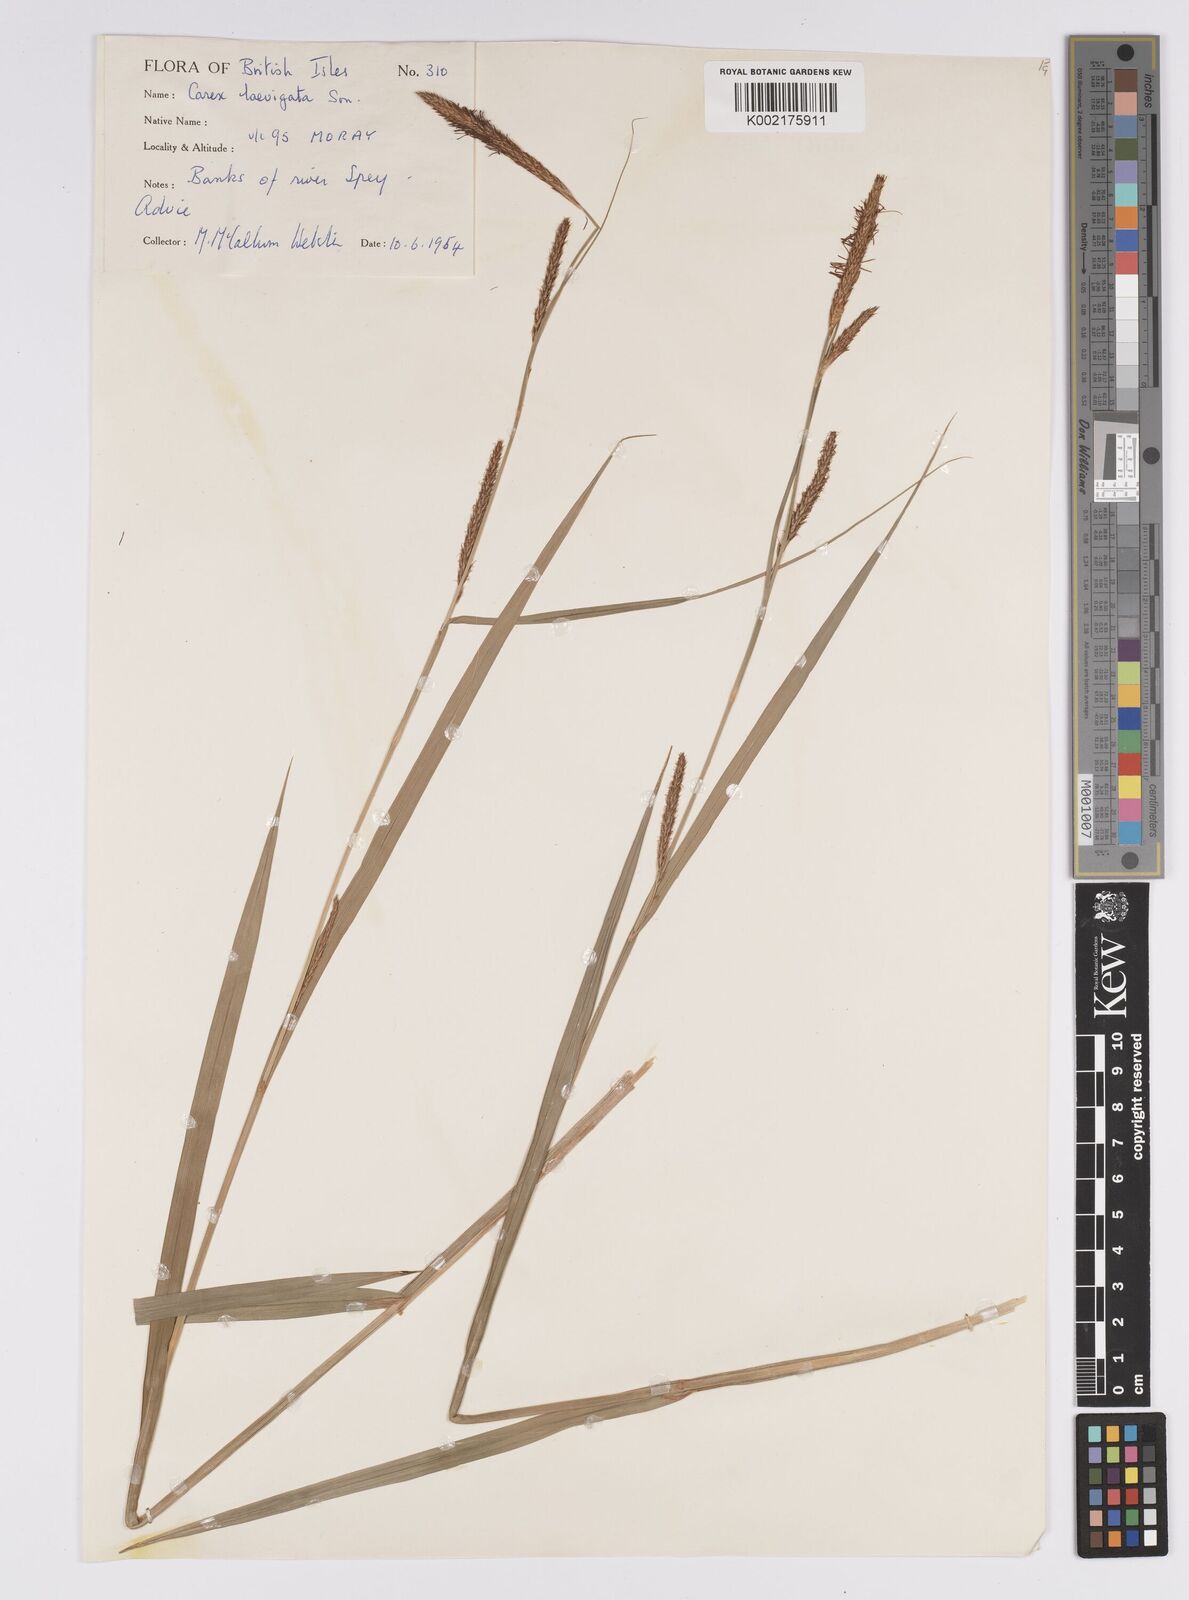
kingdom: Plantae
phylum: Tracheophyta
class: Liliopsida
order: Poales
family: Cyperaceae
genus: Carex
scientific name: Carex laevigata
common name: Smooth-stalked sedge
